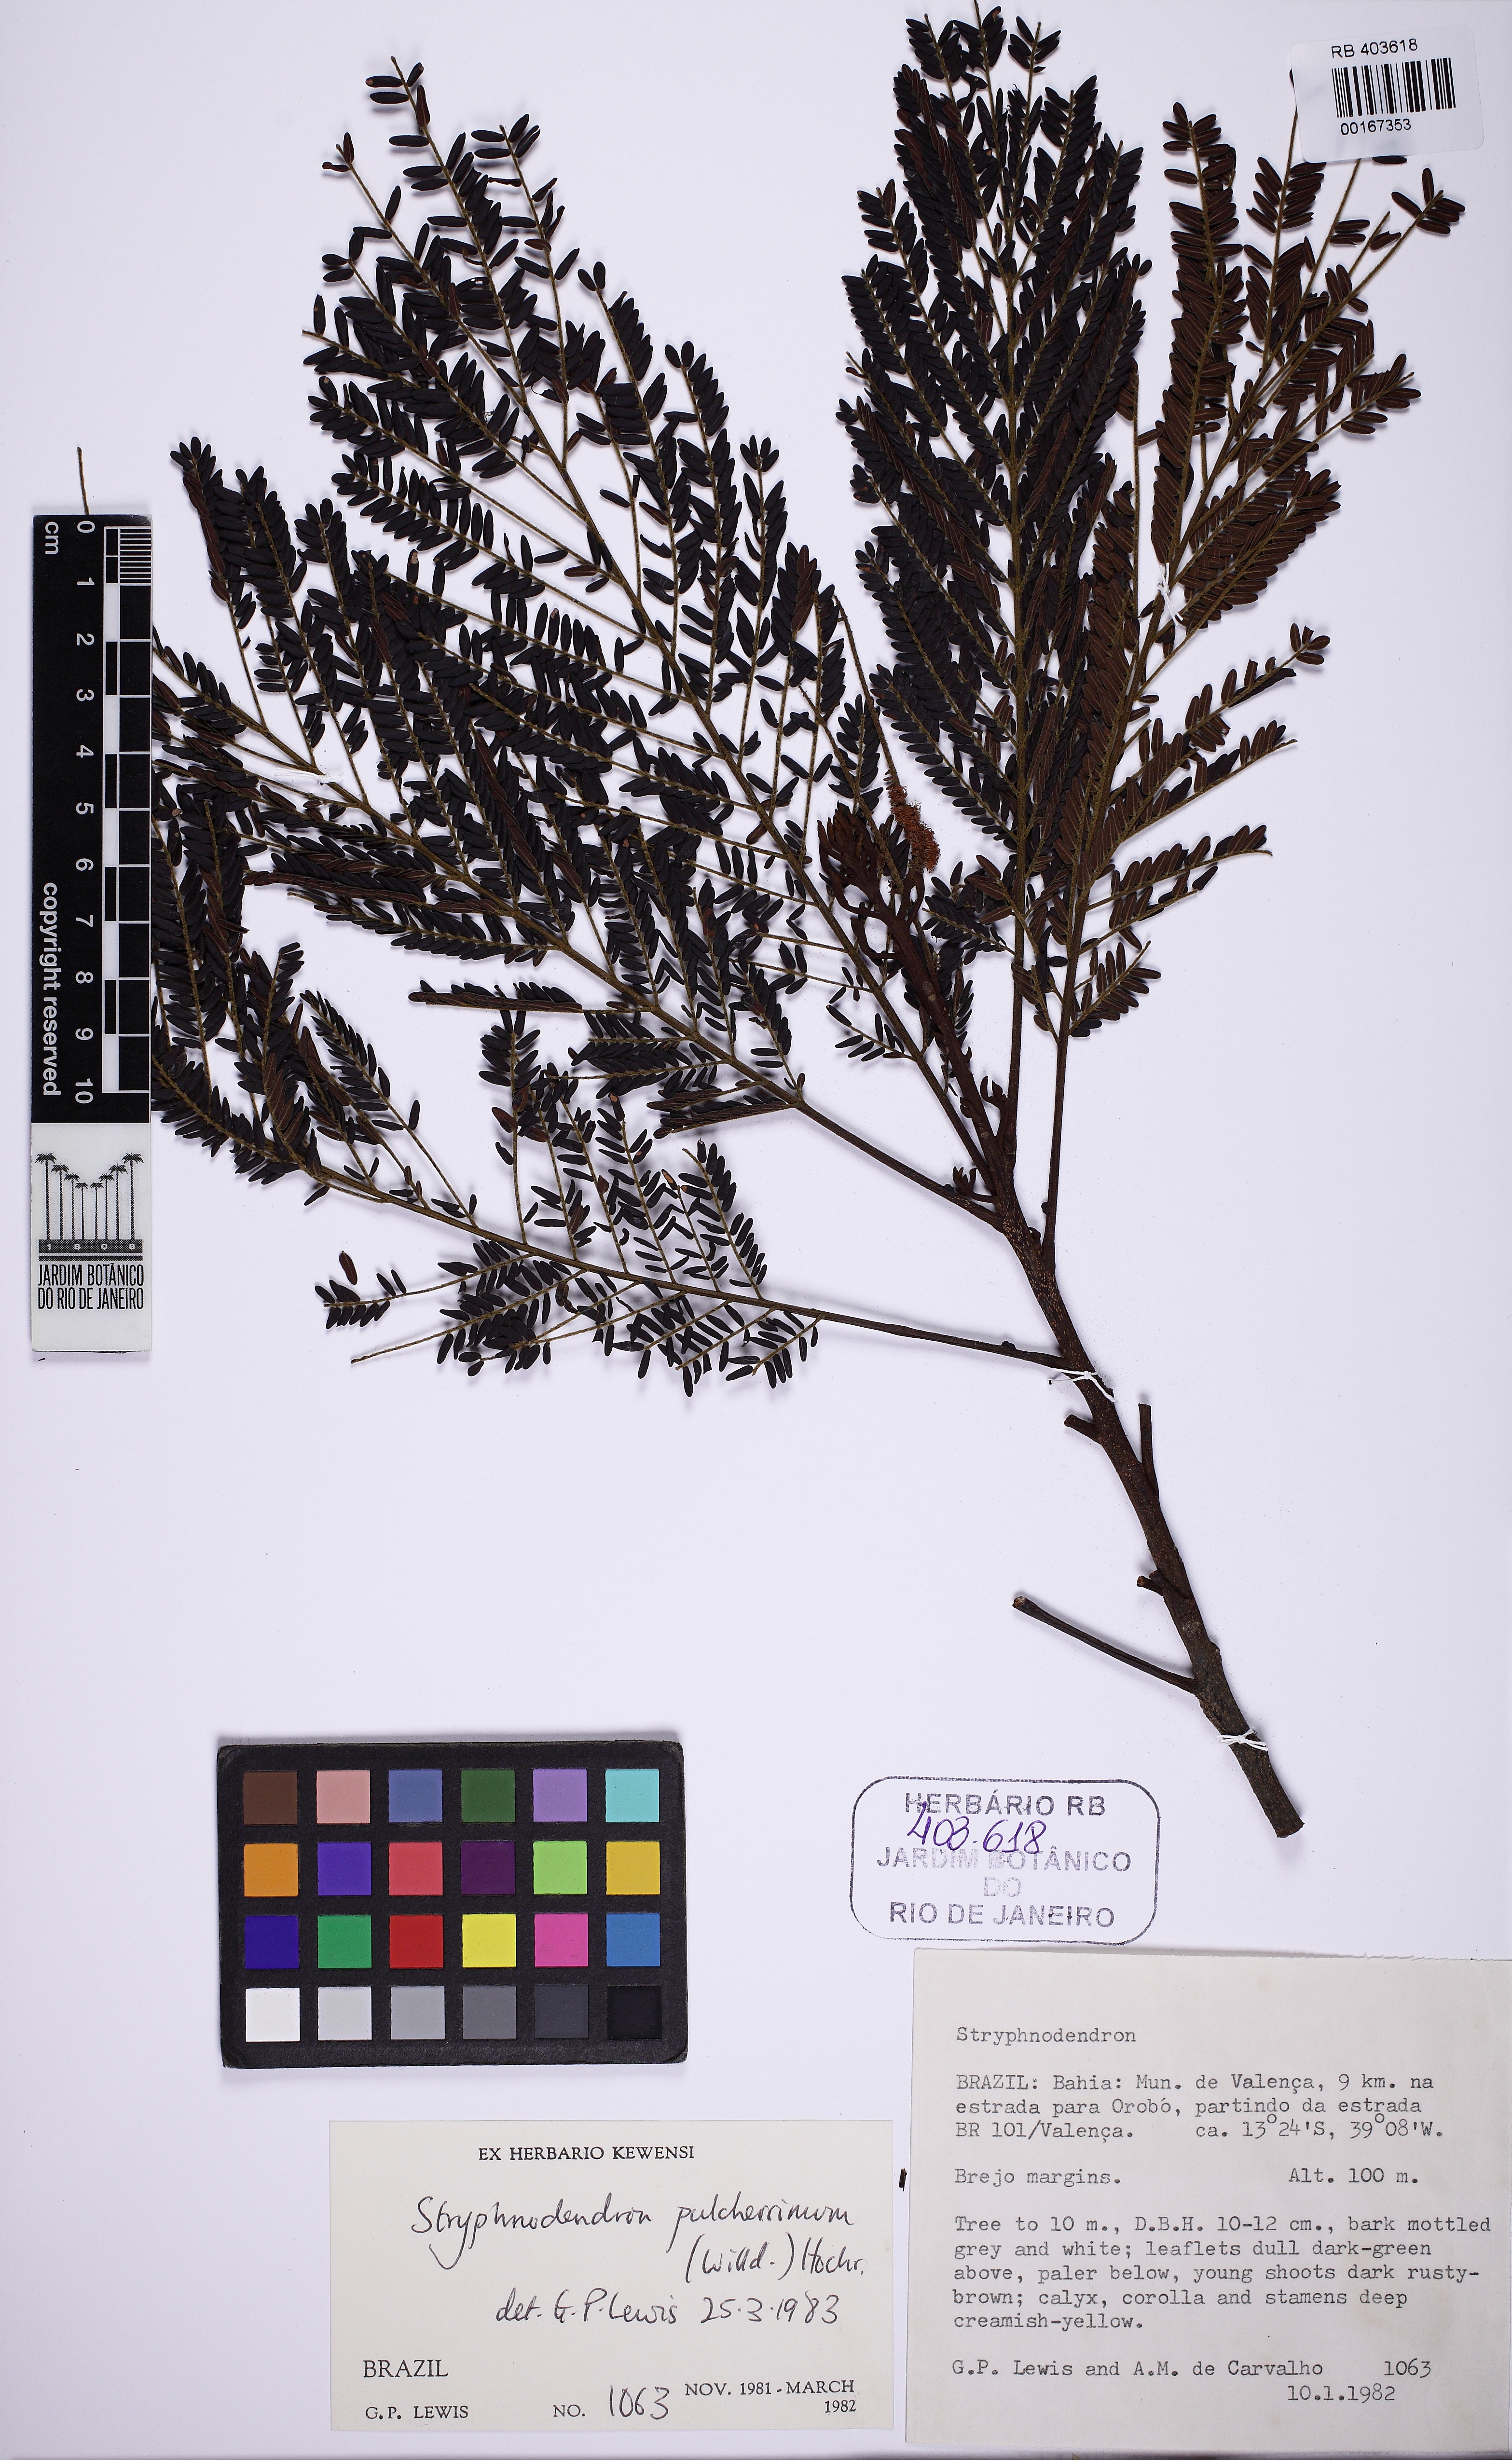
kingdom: Plantae
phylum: Tracheophyta
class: Magnoliopsida
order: Fabales
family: Fabaceae
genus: Stryphnodendron
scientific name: Stryphnodendron pulcherrimum
